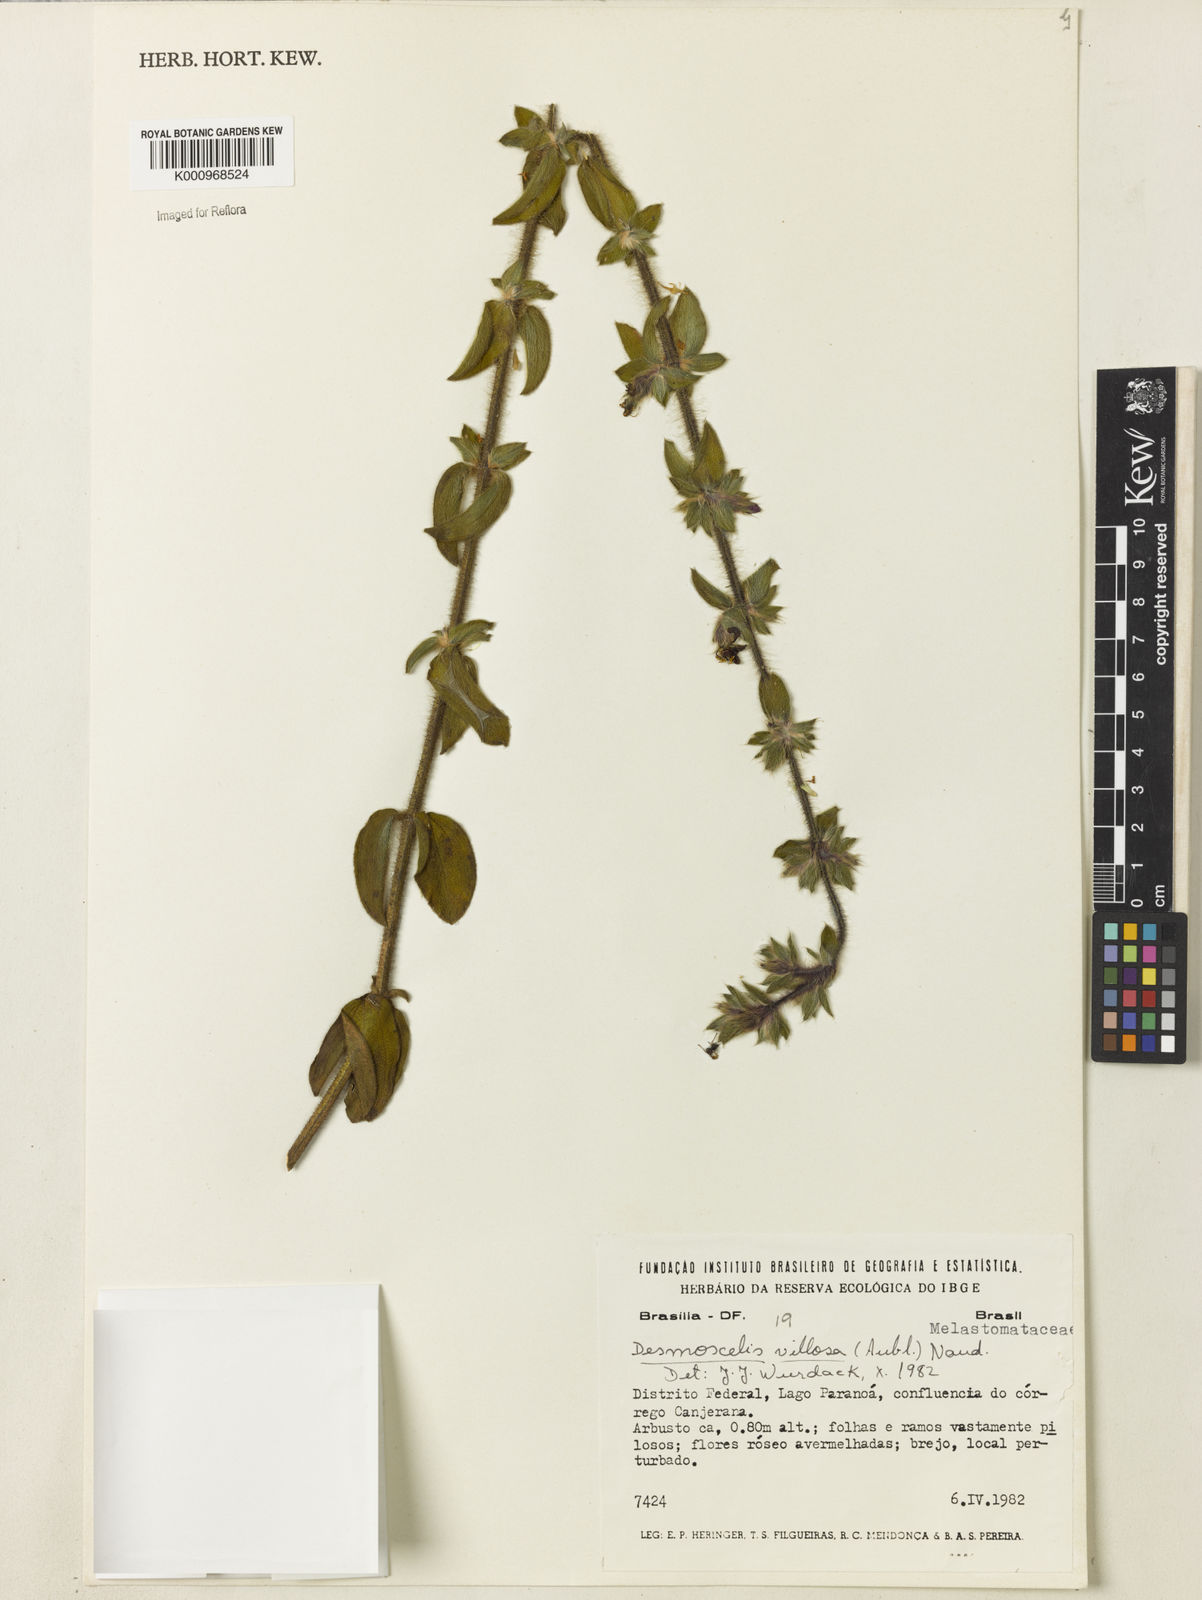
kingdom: Plantae
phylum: Tracheophyta
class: Magnoliopsida
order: Myrtales
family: Melastomataceae
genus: Desmoscelis
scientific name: Desmoscelis villosa
